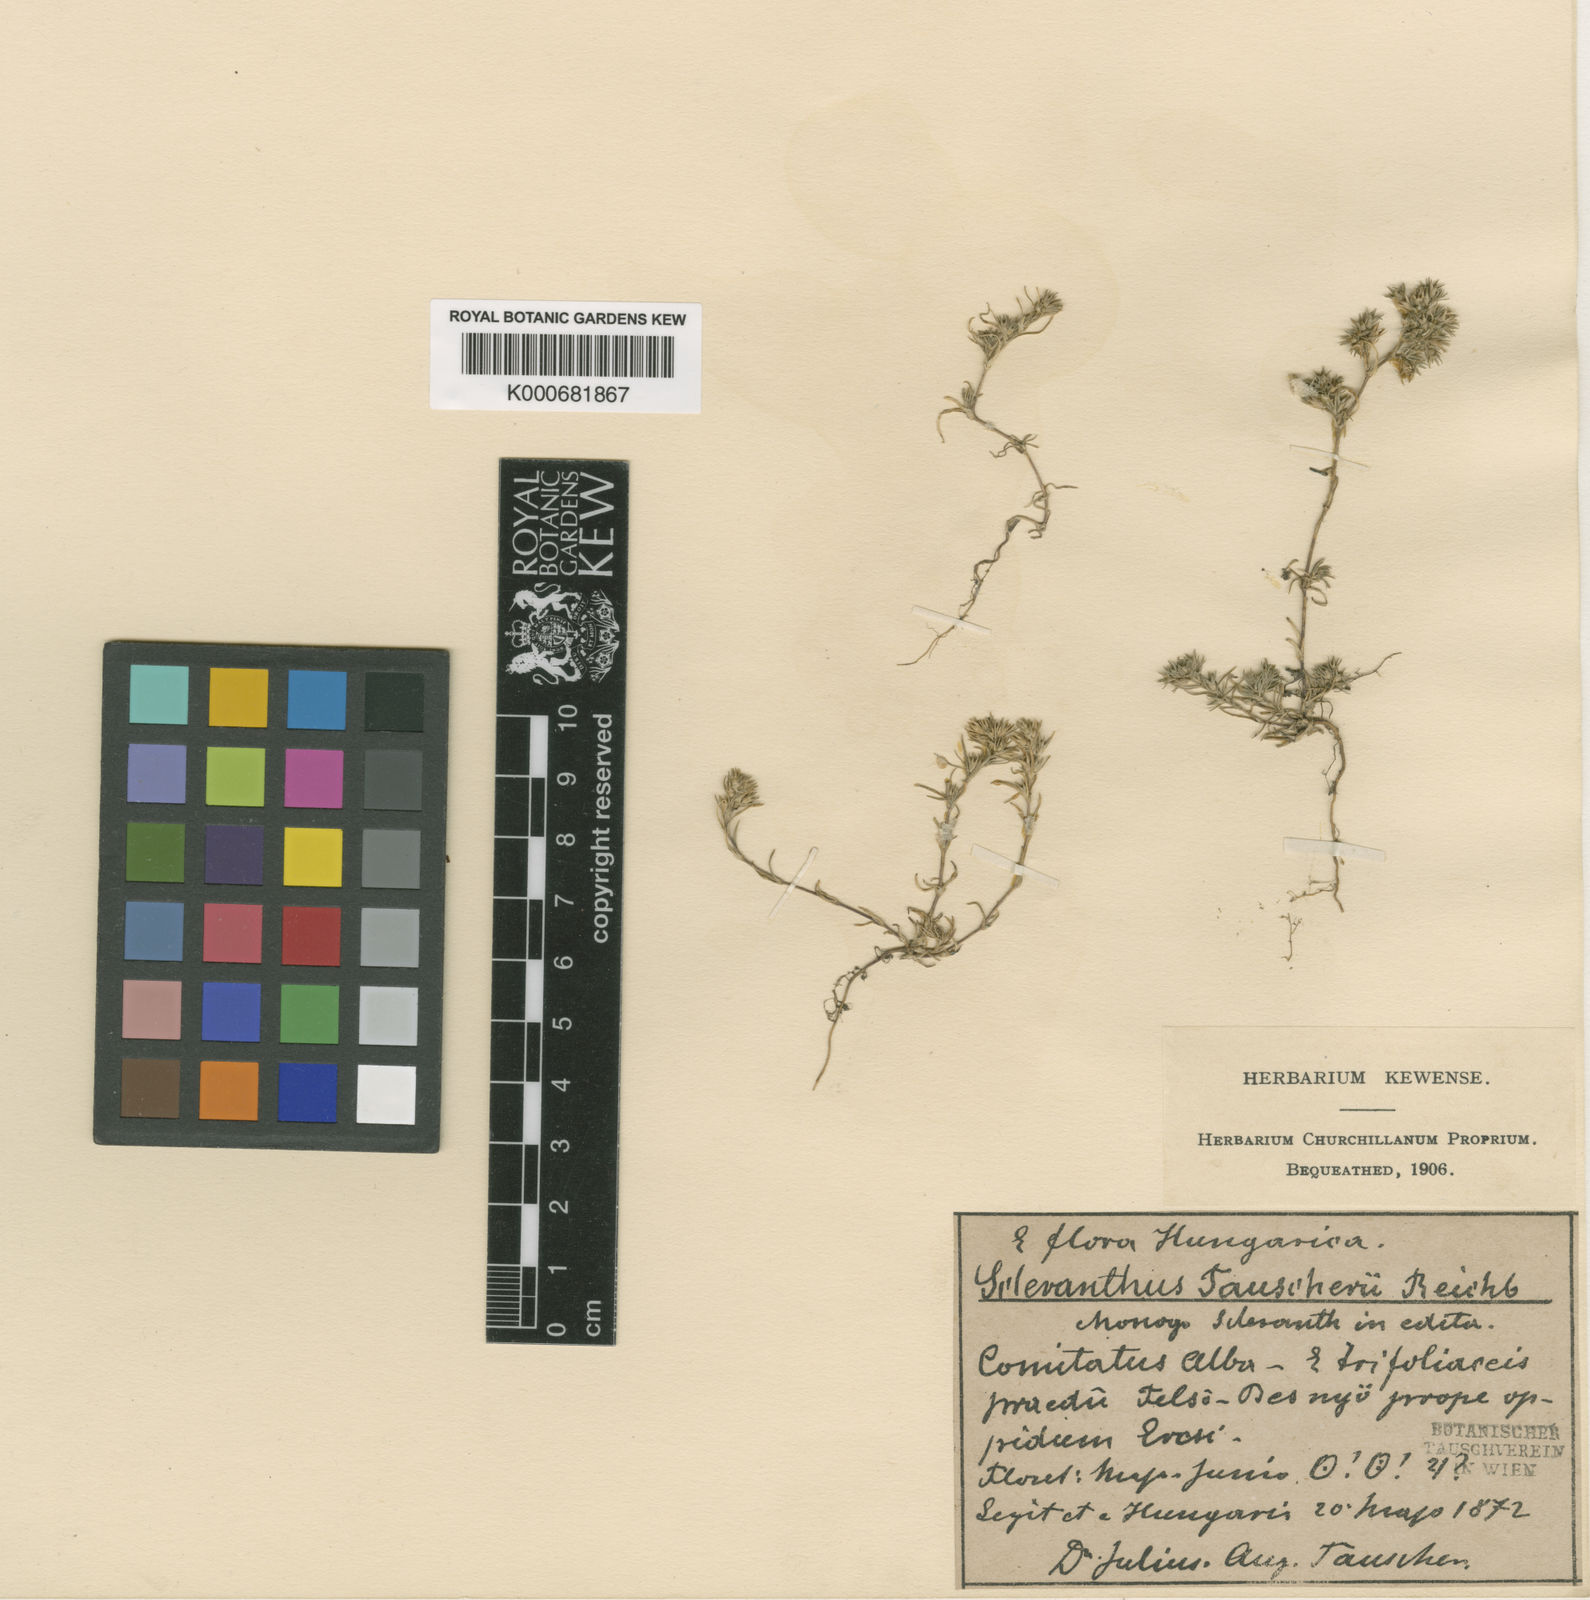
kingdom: Plantae
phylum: Tracheophyta
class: Magnoliopsida
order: Caryophyllales
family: Caryophyllaceae
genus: Scleranthus
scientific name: Scleranthus annuus
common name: Annual knawel
